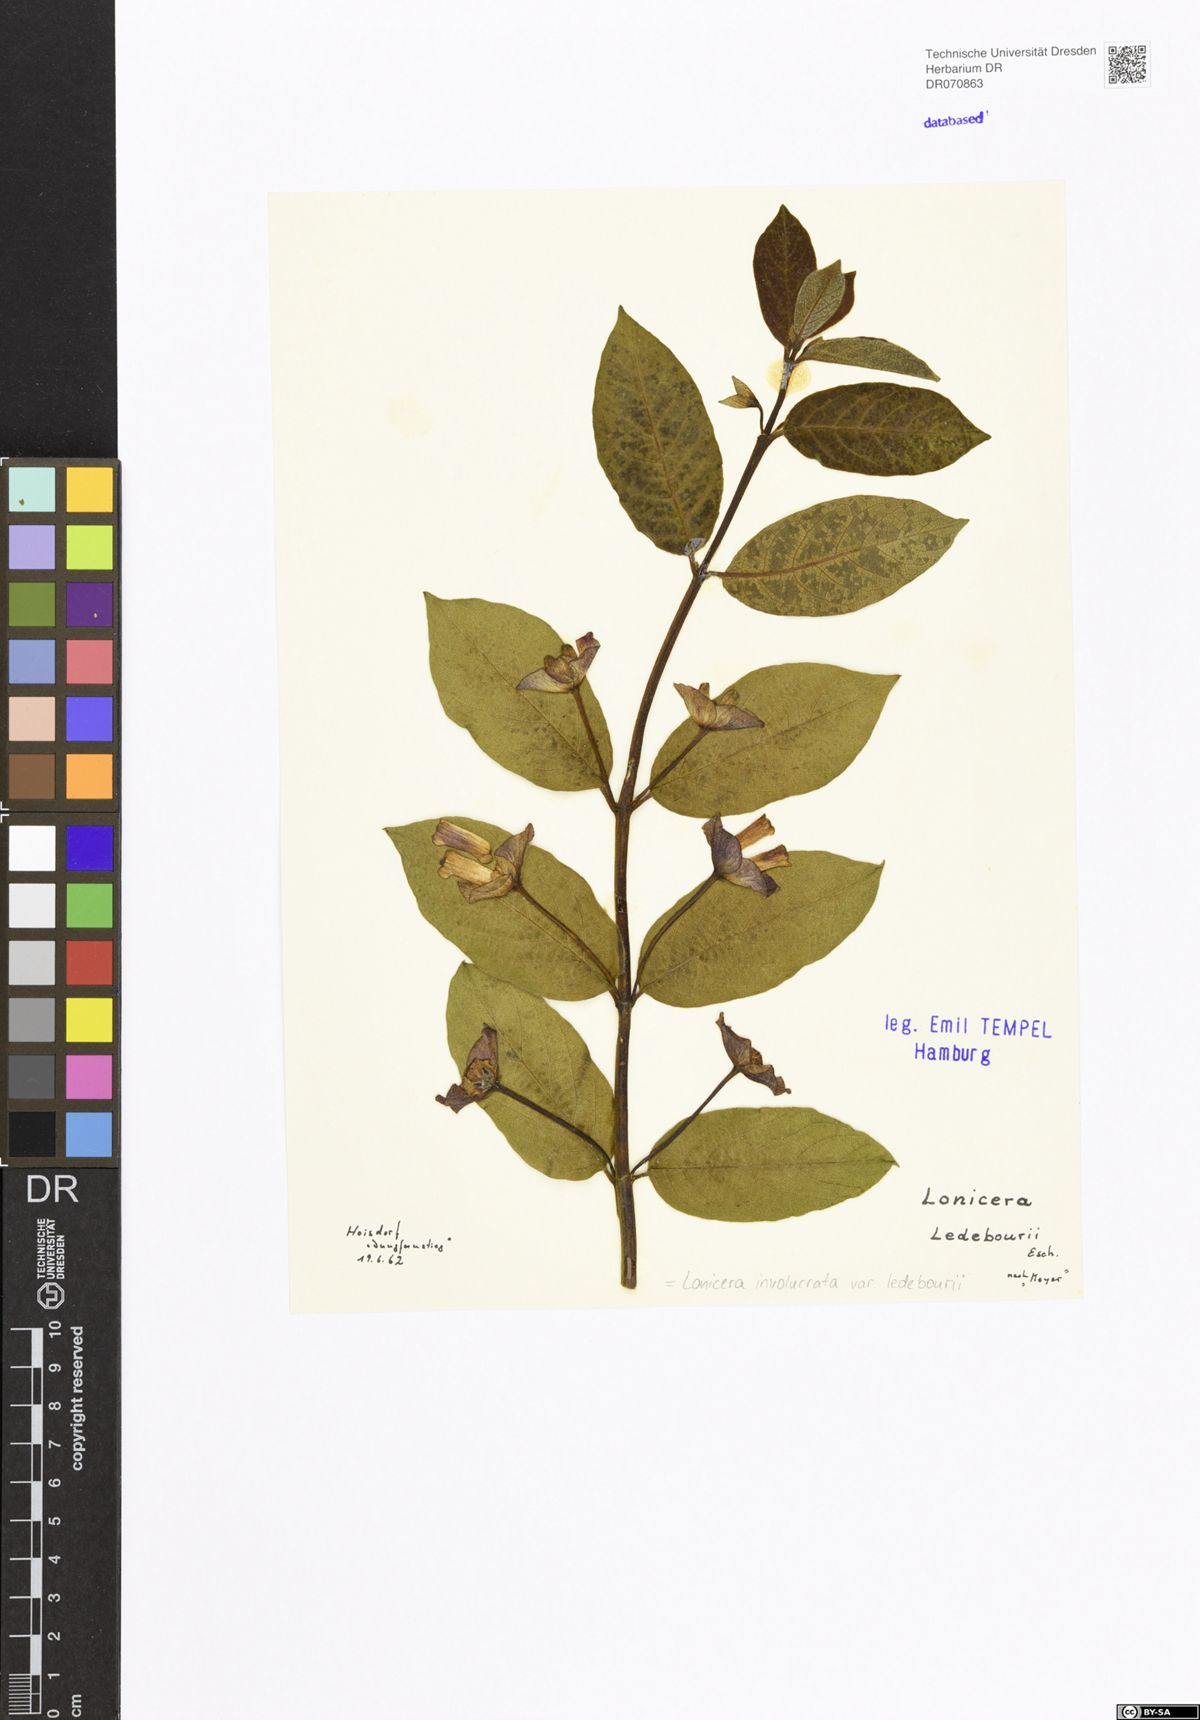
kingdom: Plantae
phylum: Tracheophyta
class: Magnoliopsida
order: Dipsacales
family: Caprifoliaceae
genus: Lonicera
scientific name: Lonicera involucrata
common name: Californian honeysuckle
